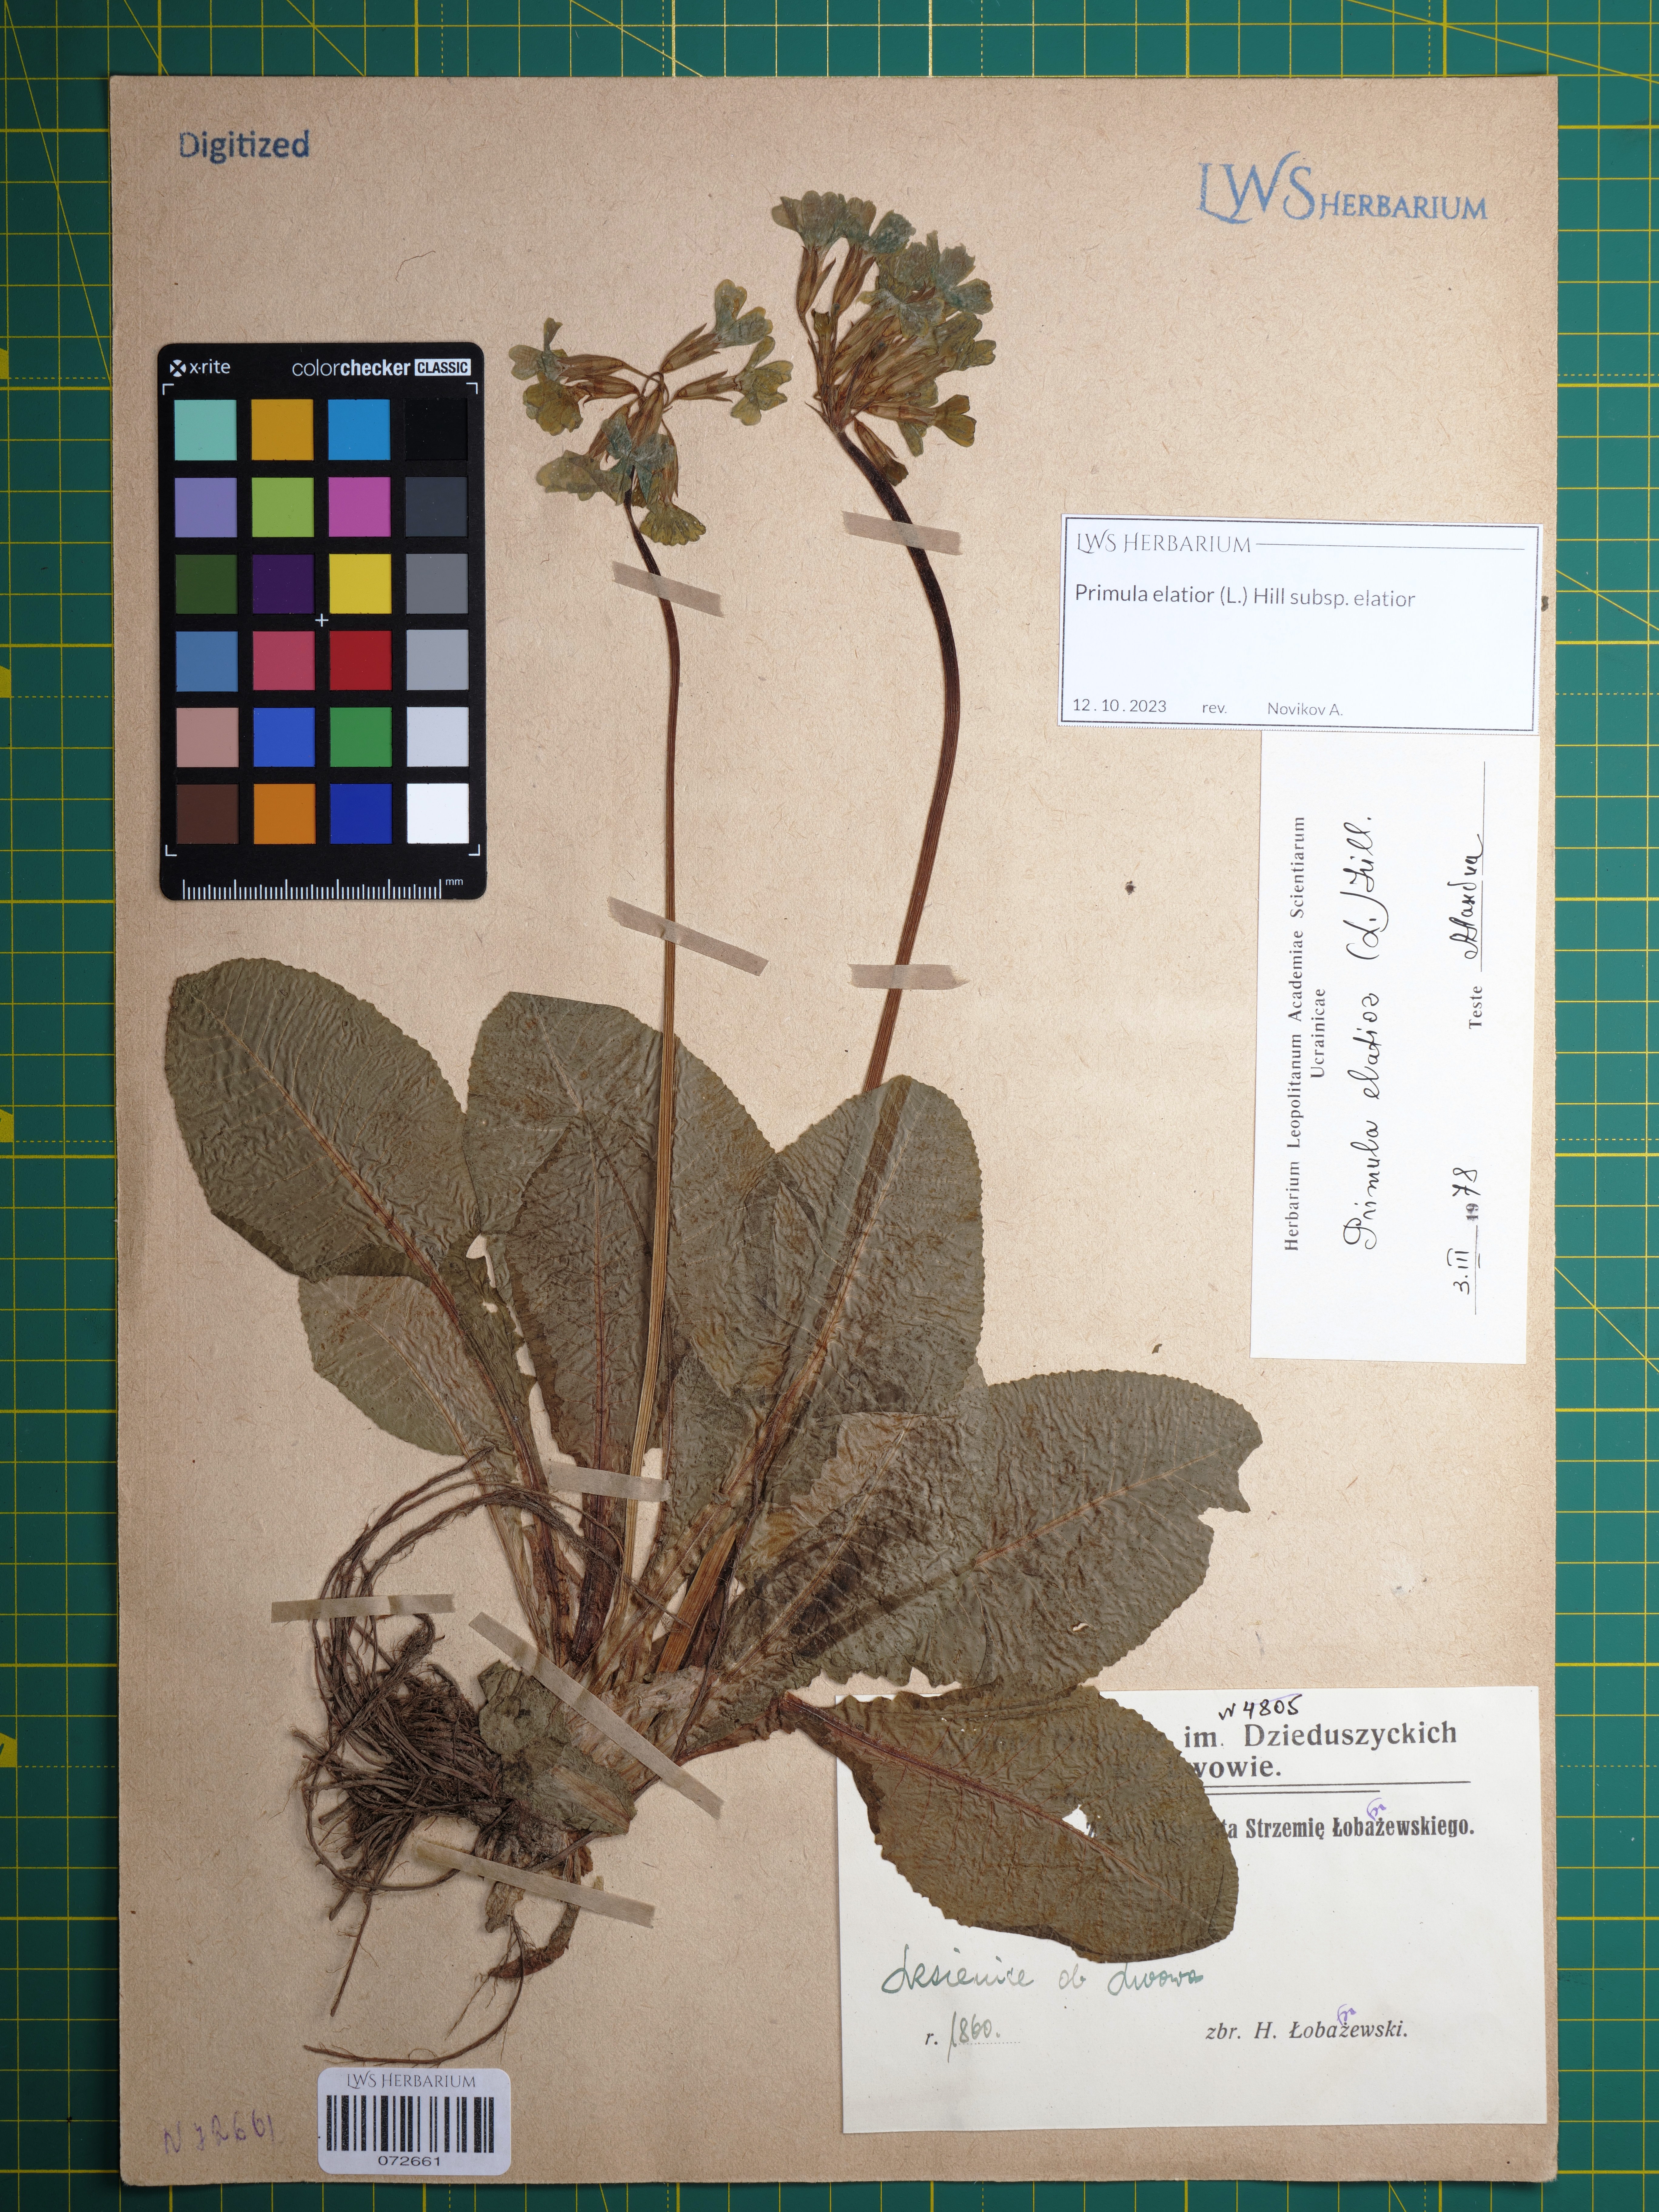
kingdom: Plantae
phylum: Tracheophyta
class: Magnoliopsida
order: Ericales
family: Primulaceae
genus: Primula
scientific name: Primula elatior
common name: Oxlip
